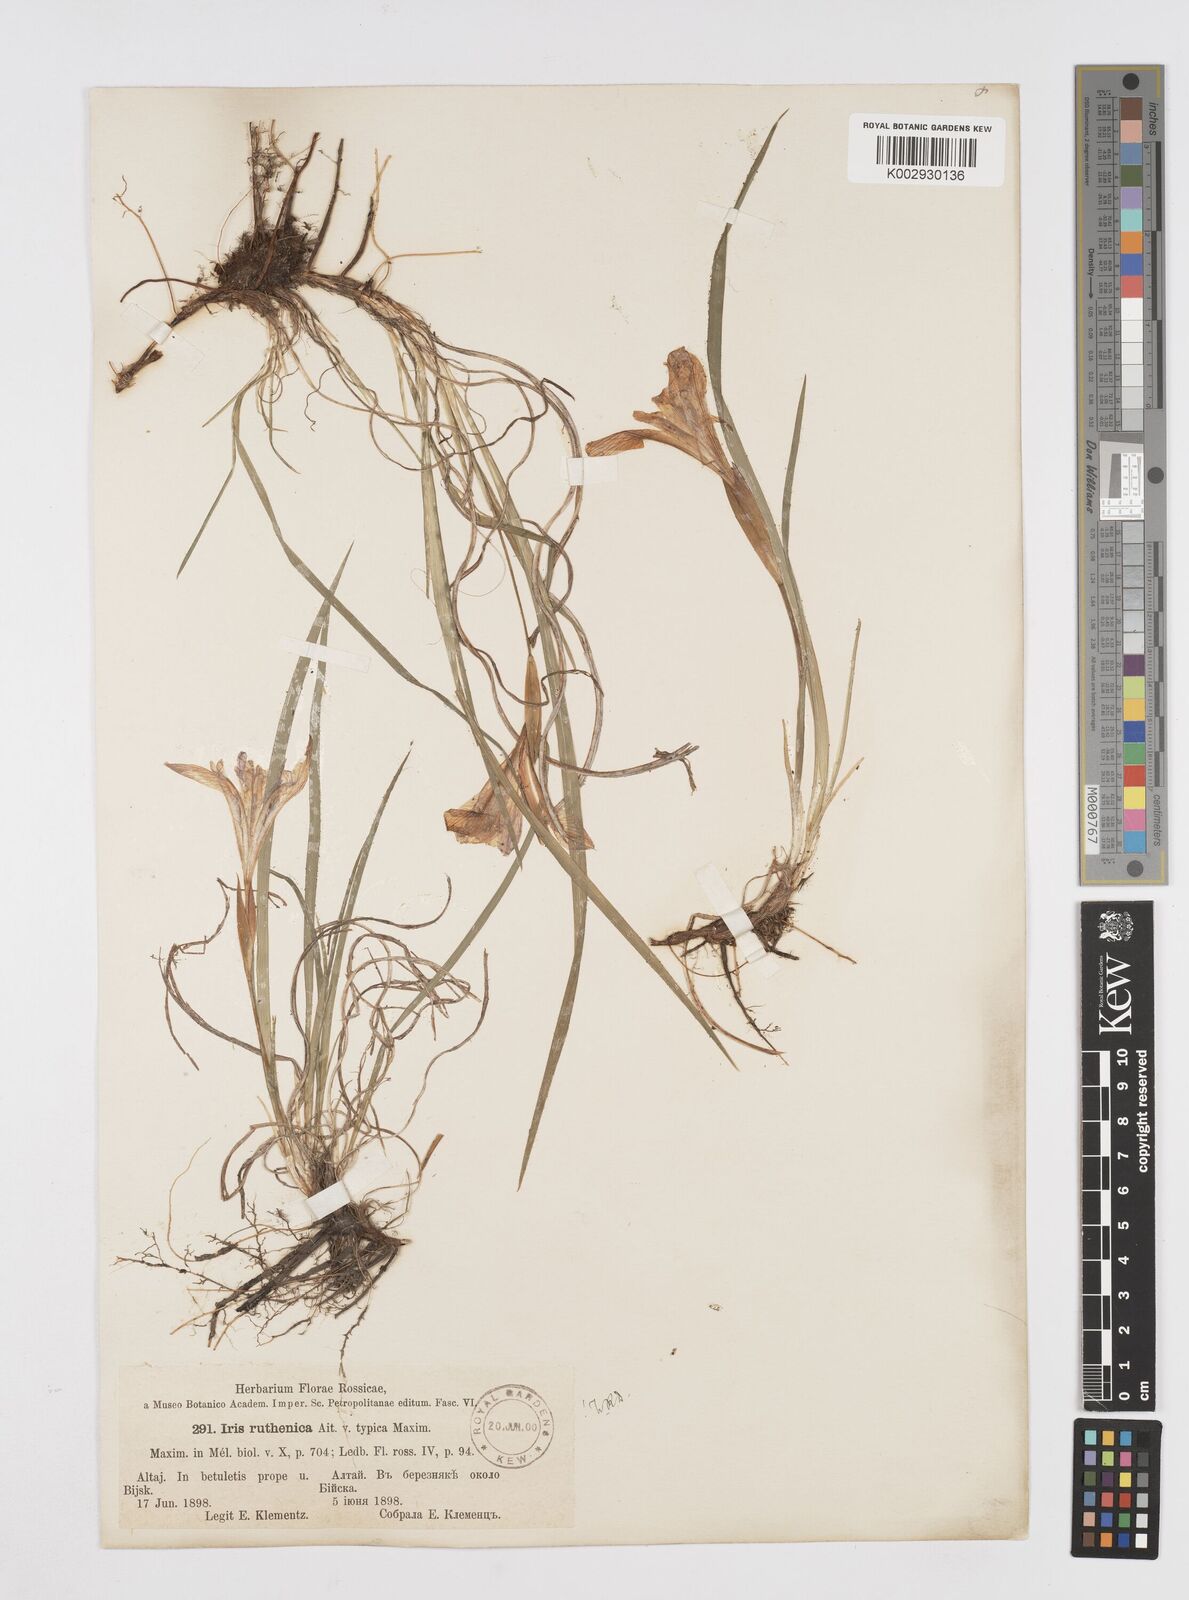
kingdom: Plantae
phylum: Tracheophyta
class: Liliopsida
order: Asparagales
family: Iridaceae
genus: Iris
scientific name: Iris ruthenica
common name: Purple-bract iris
